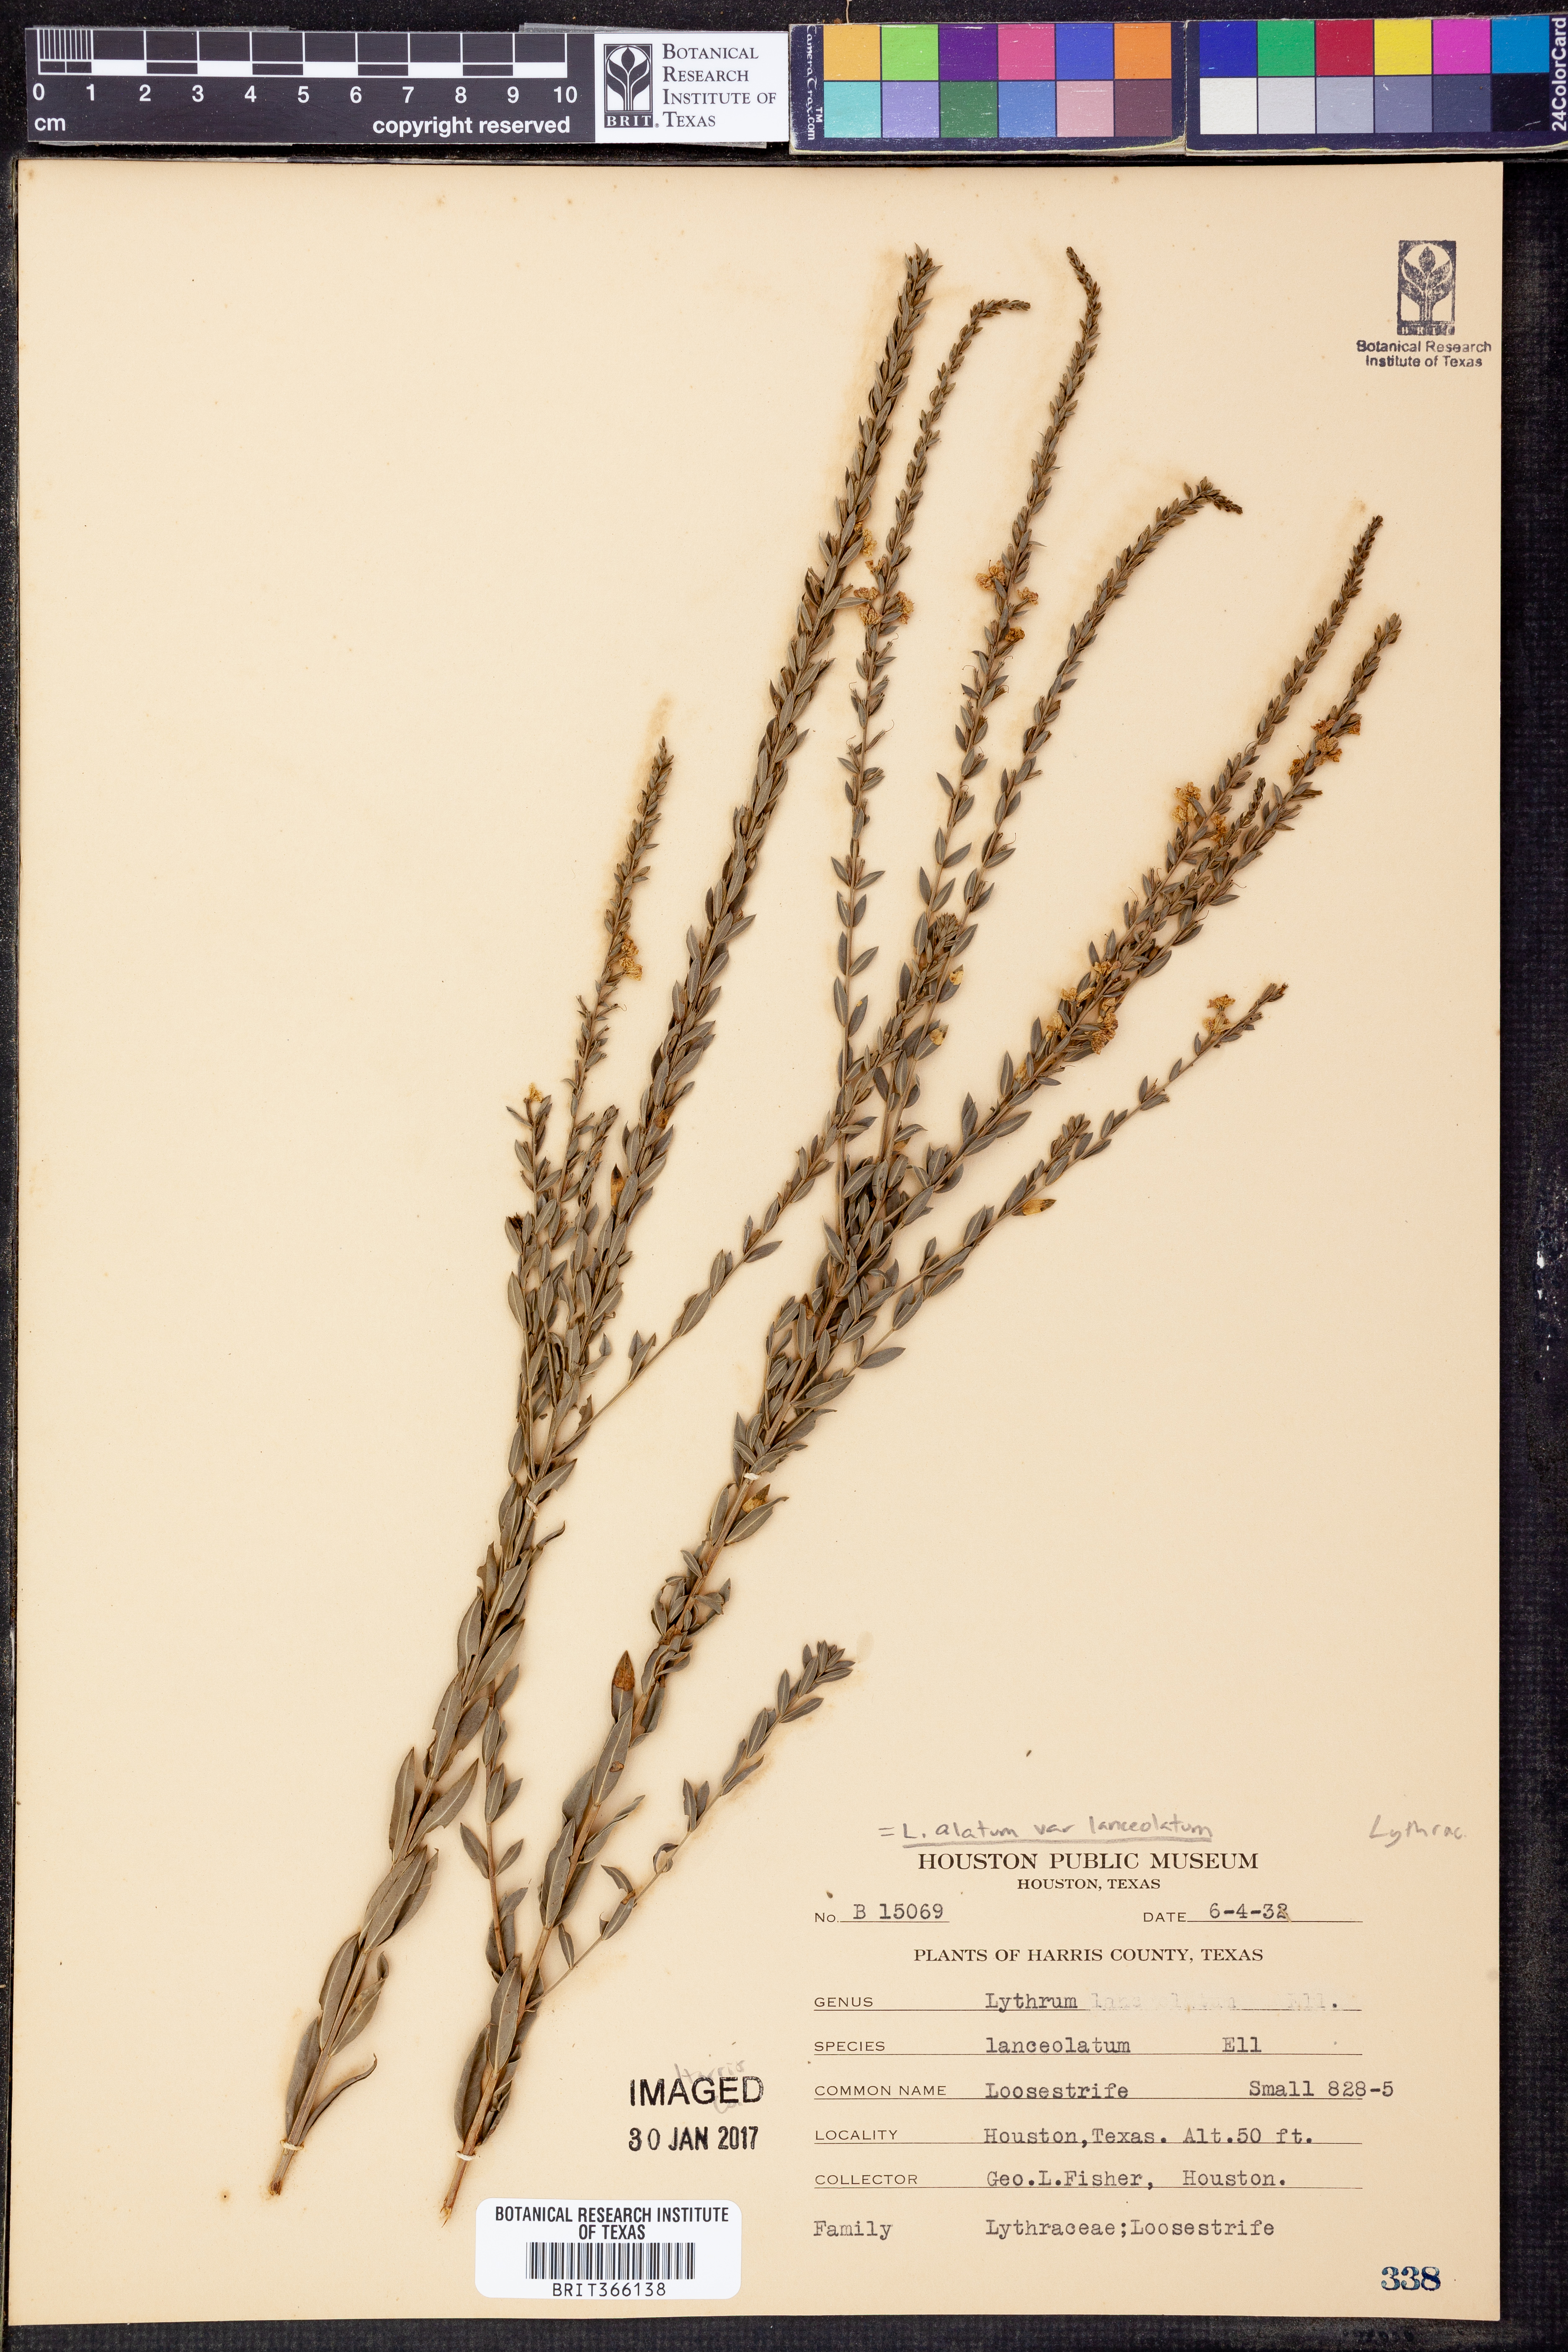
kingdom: Plantae
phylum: Tracheophyta
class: Magnoliopsida
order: Myrtales
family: Lythraceae
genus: Lythrum
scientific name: Lythrum alatum
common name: Winged loosestrife
